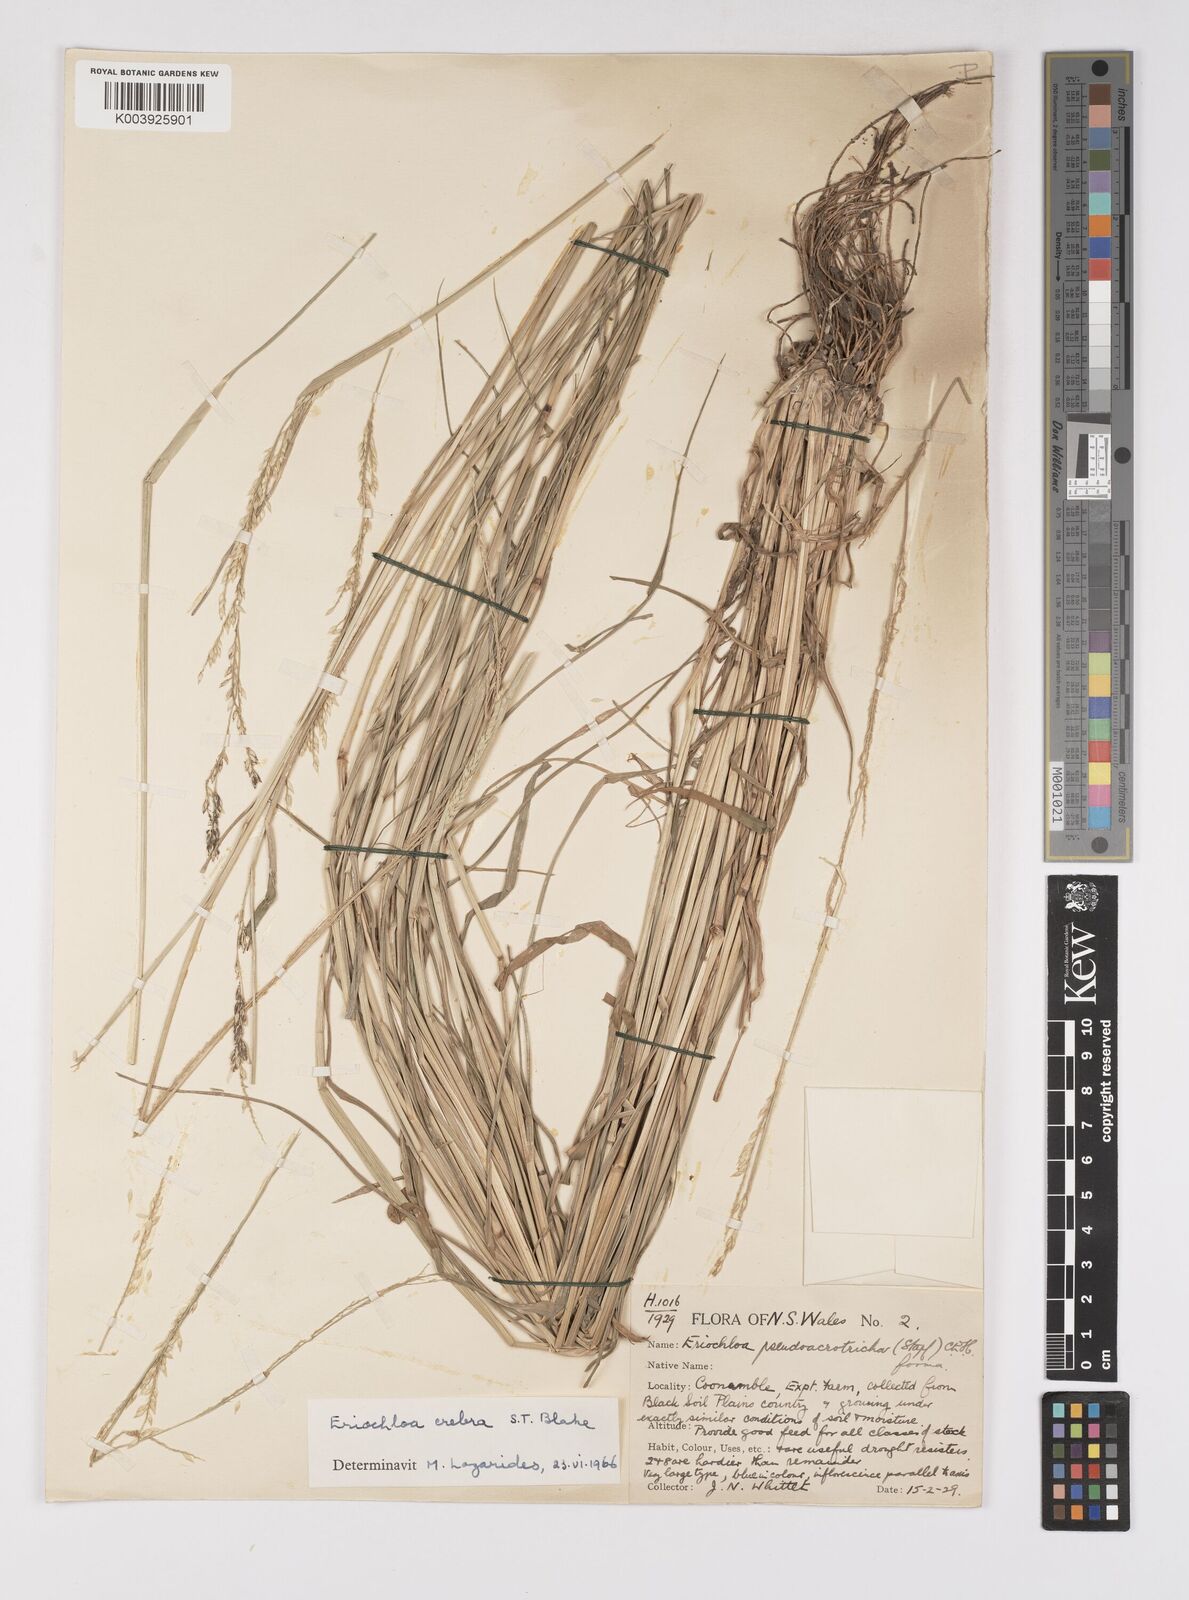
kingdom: Plantae
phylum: Tracheophyta
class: Liliopsida
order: Poales
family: Poaceae
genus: Eriochloa
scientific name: Eriochloa crebra
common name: Cup grass
